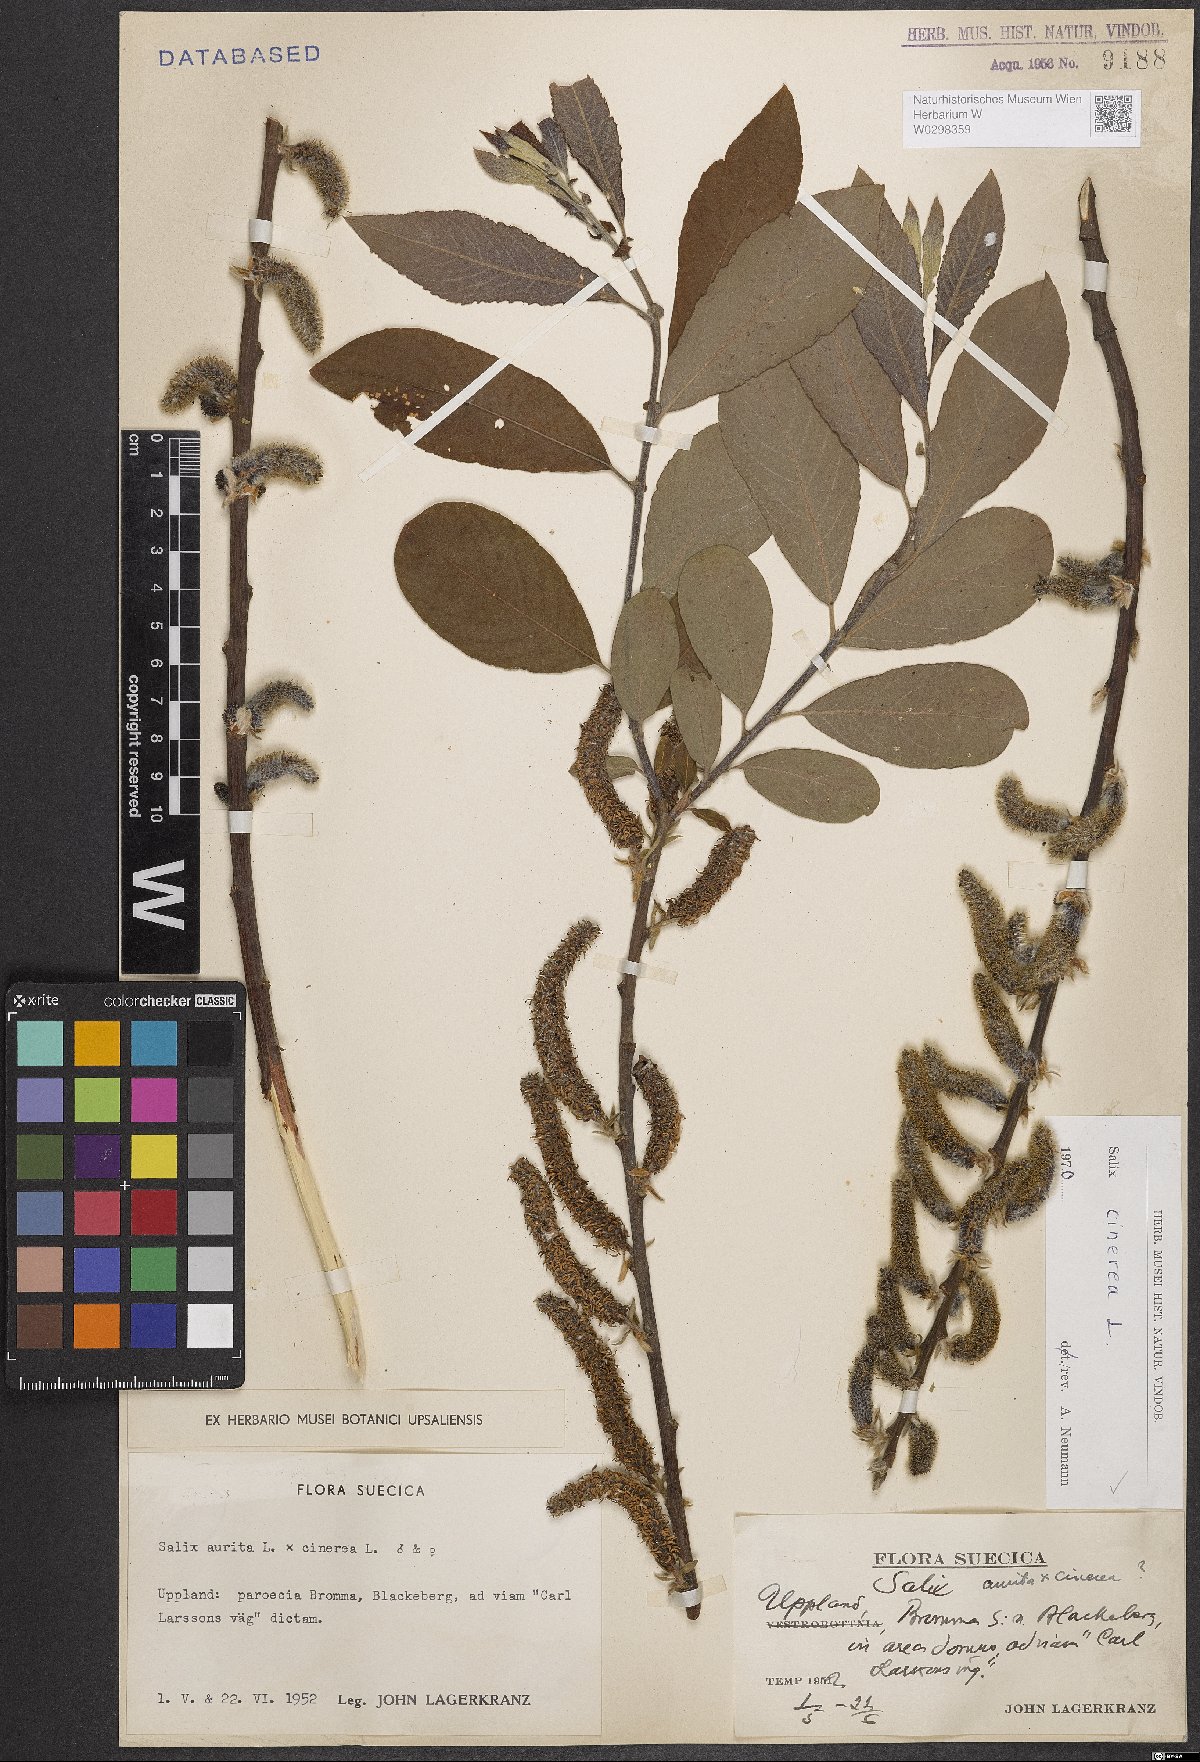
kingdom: Plantae
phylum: Tracheophyta
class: Magnoliopsida
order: Malpighiales
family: Salicaceae
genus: Salix
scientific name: Salix cinerea
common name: Common sallow
